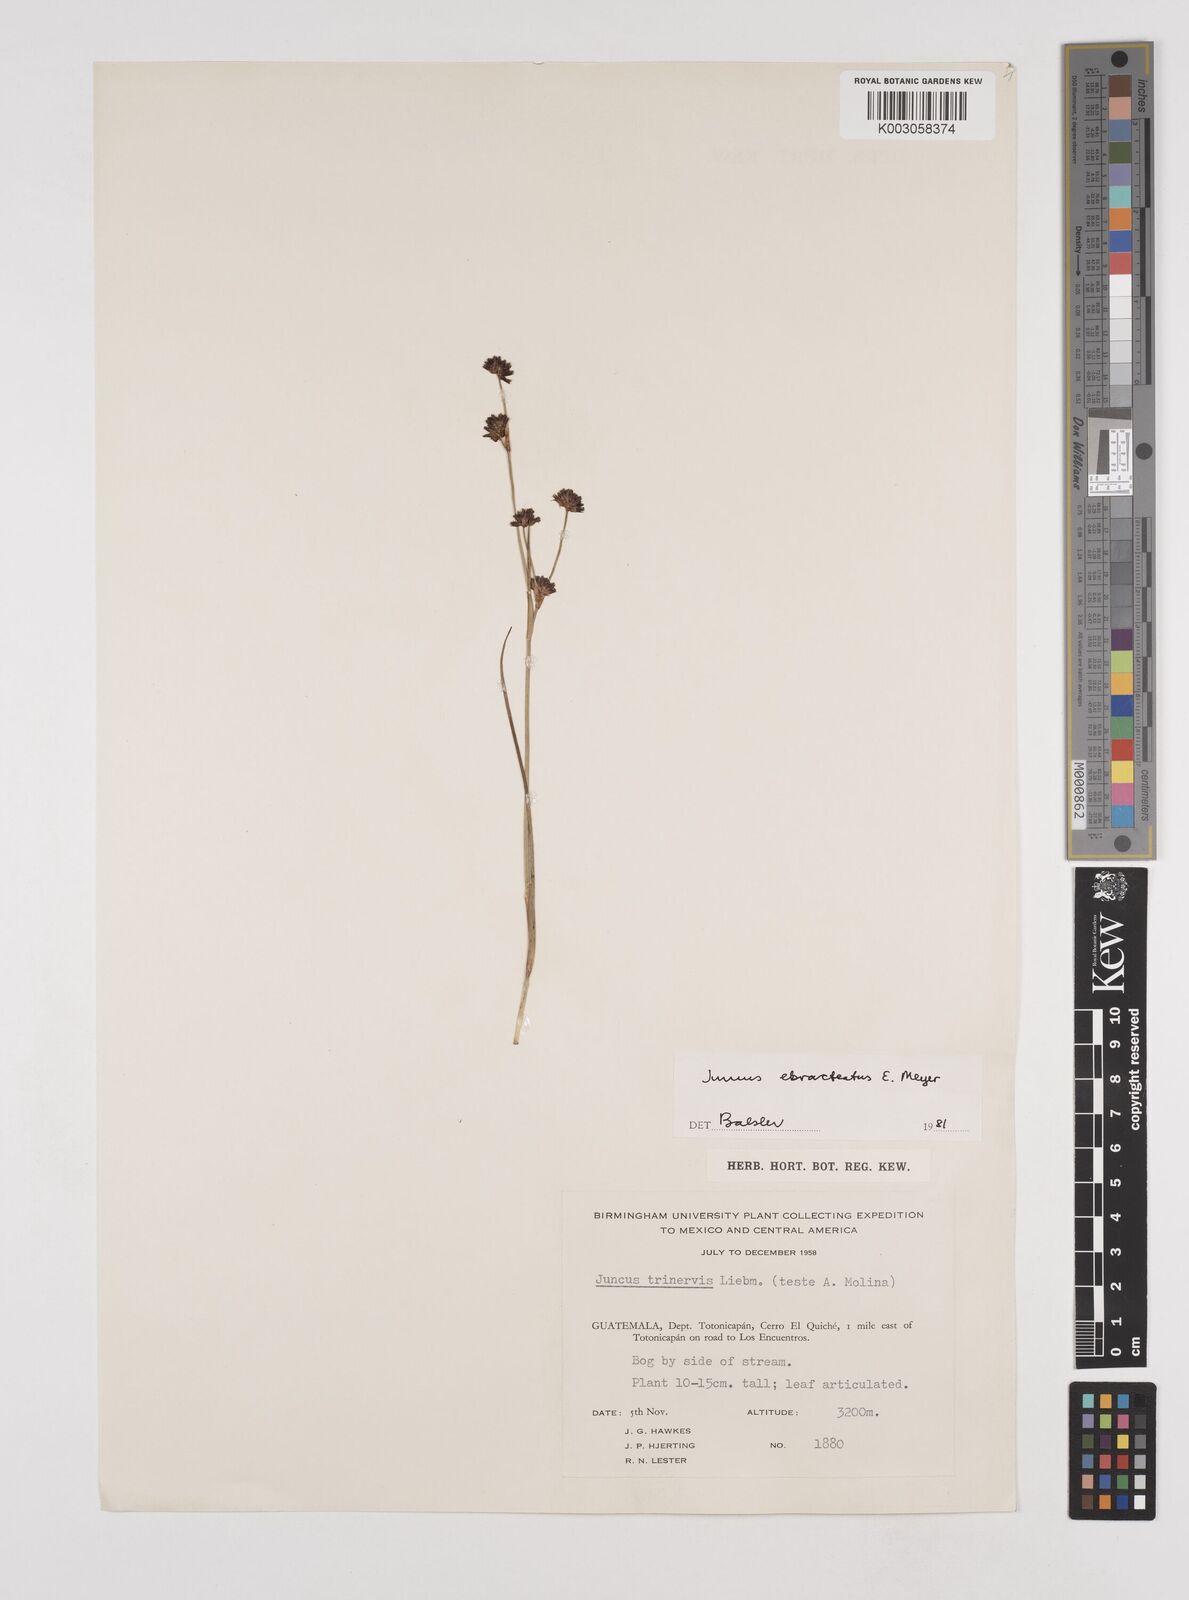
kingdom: Plantae
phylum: Tracheophyta
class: Liliopsida
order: Poales
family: Juncaceae
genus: Juncus
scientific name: Juncus ebracteatus
